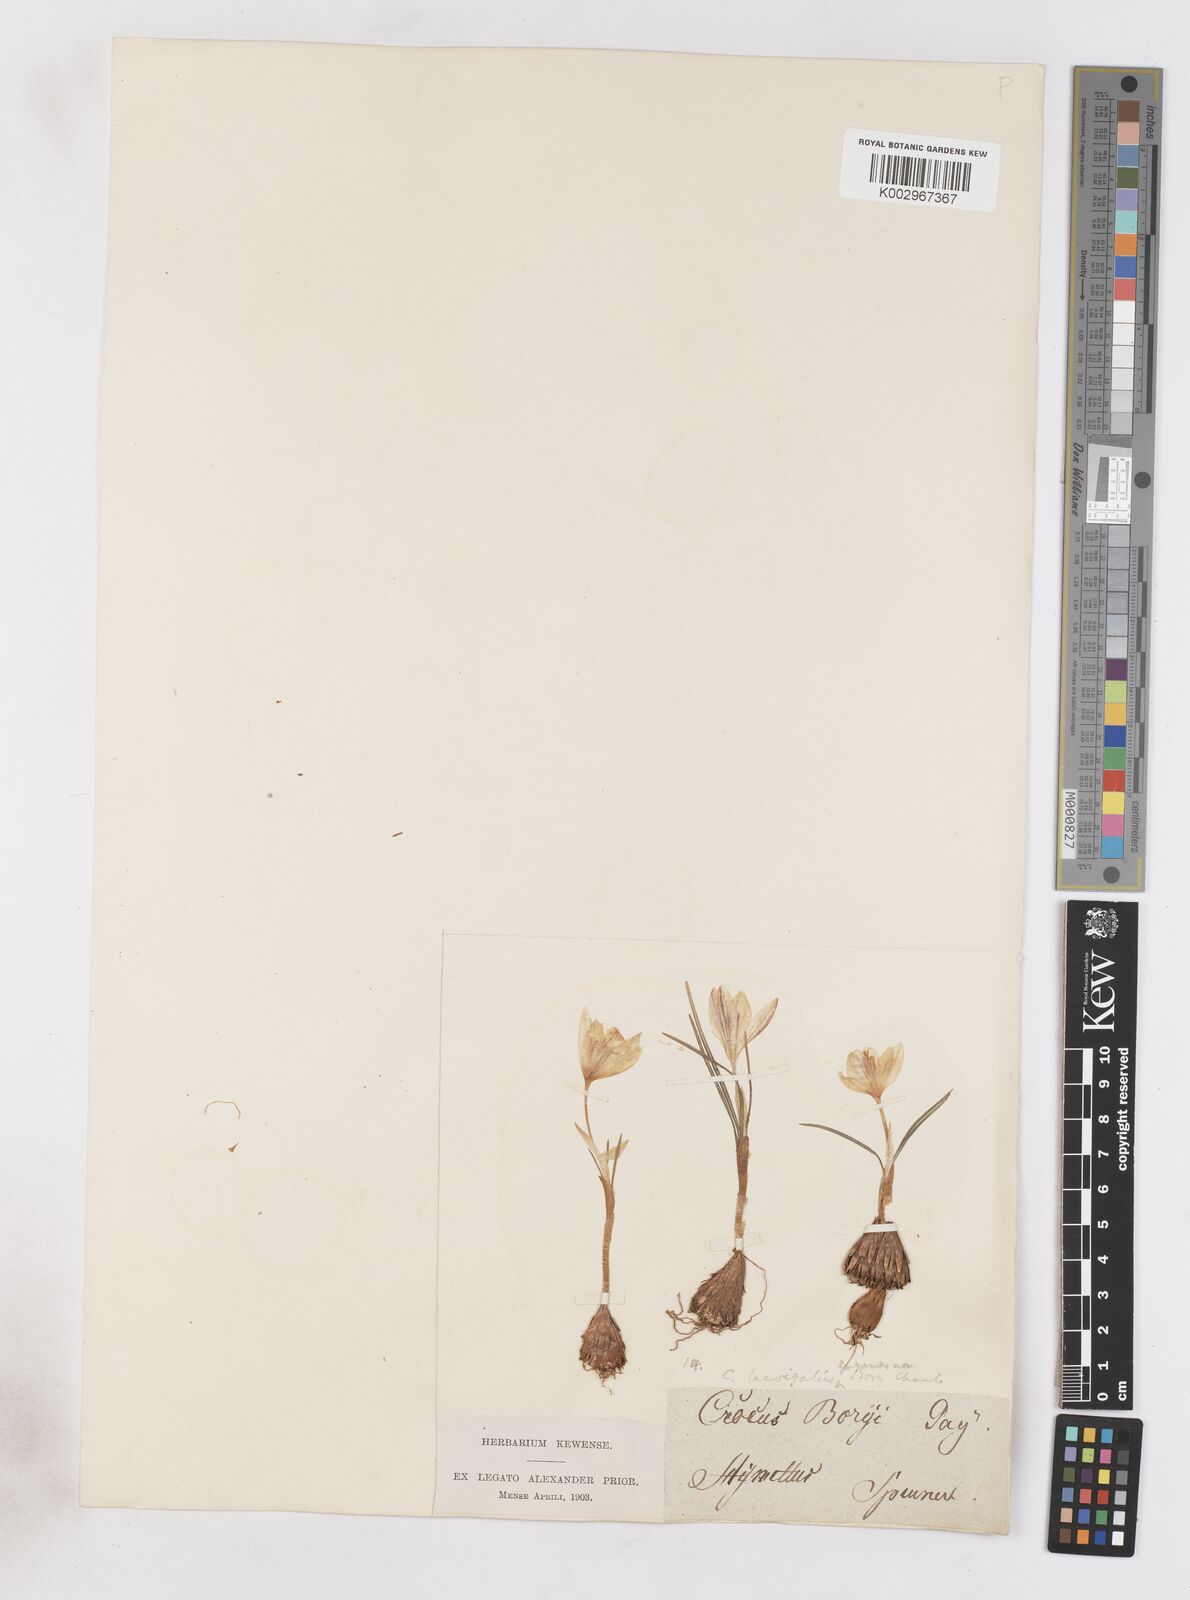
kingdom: Plantae
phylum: Tracheophyta
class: Liliopsida
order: Asparagales
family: Iridaceae
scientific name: Iridaceae
